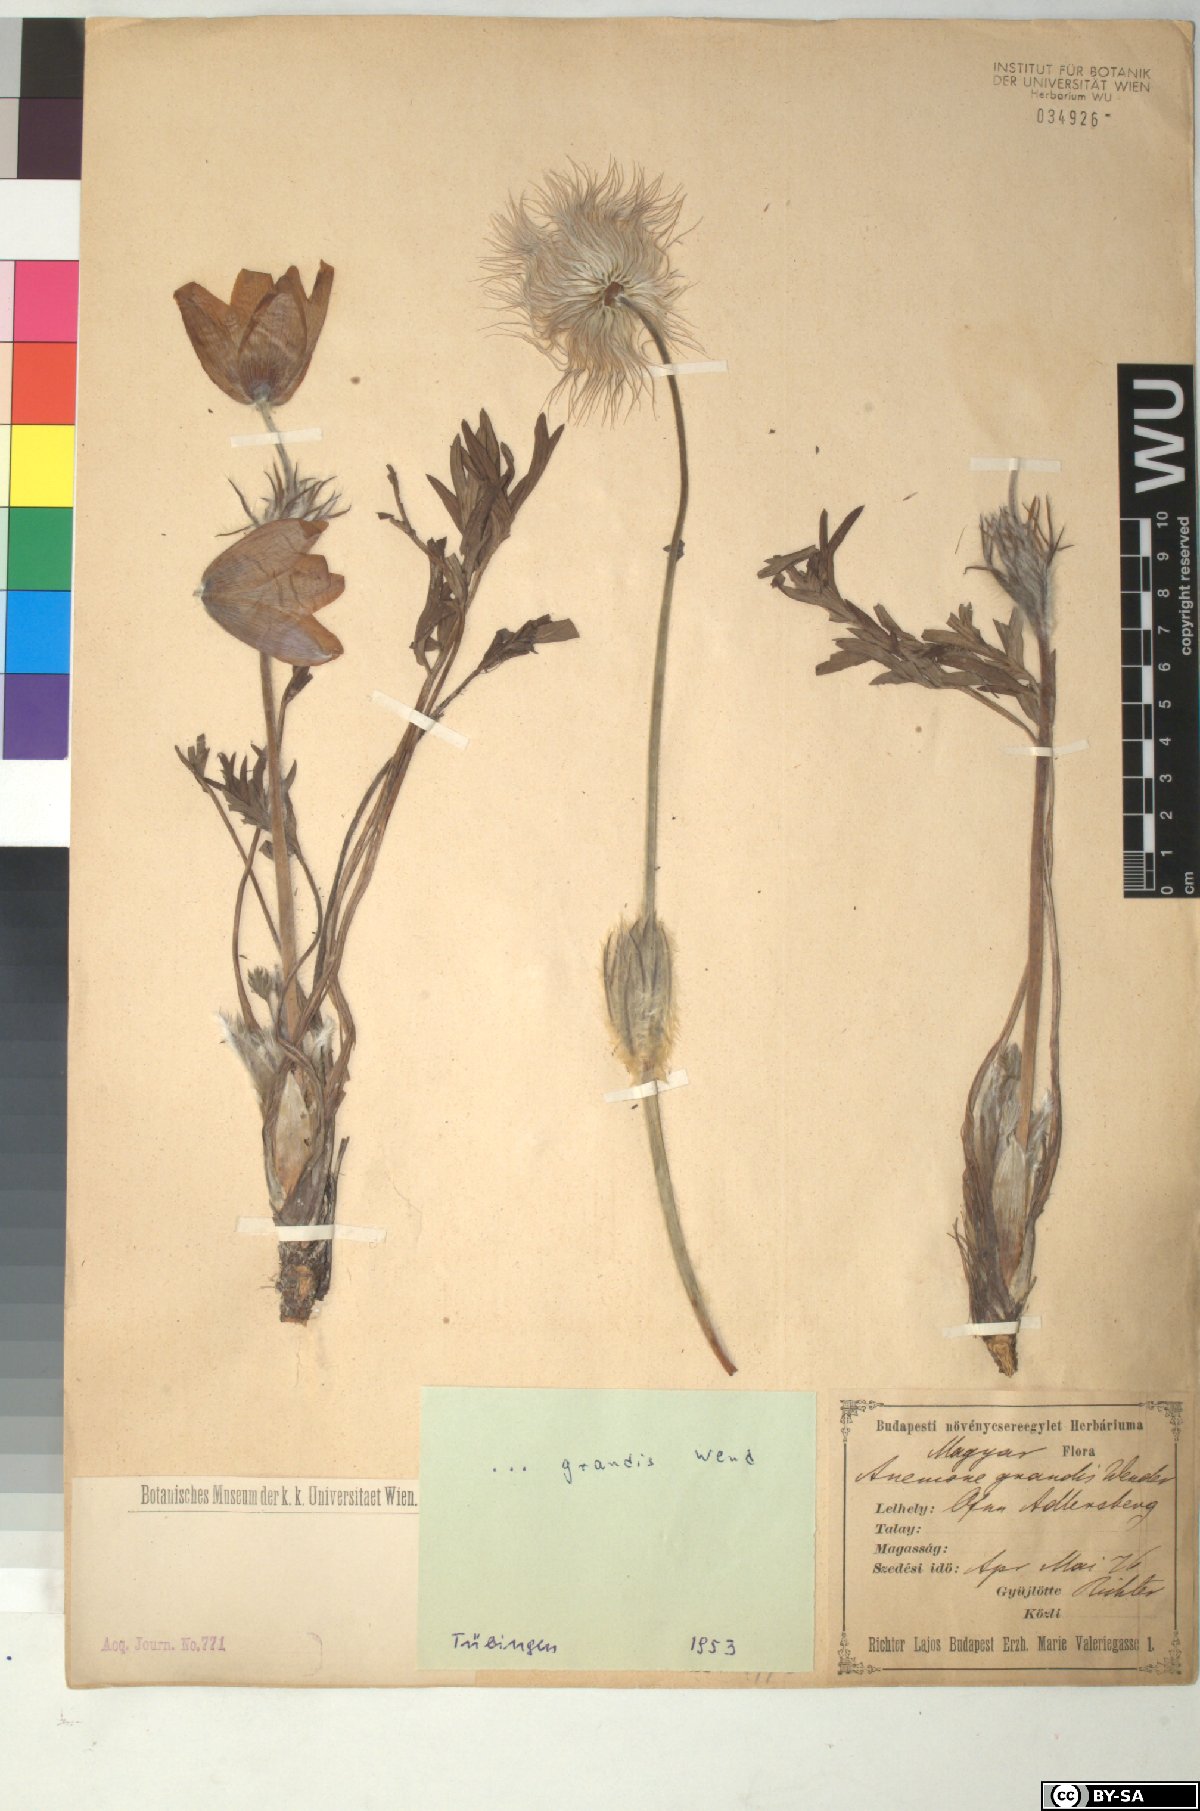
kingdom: Plantae
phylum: Tracheophyta
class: Magnoliopsida
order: Ranunculales
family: Ranunculaceae
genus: Pulsatilla
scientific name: Pulsatilla grandis
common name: Greater pasque flower
